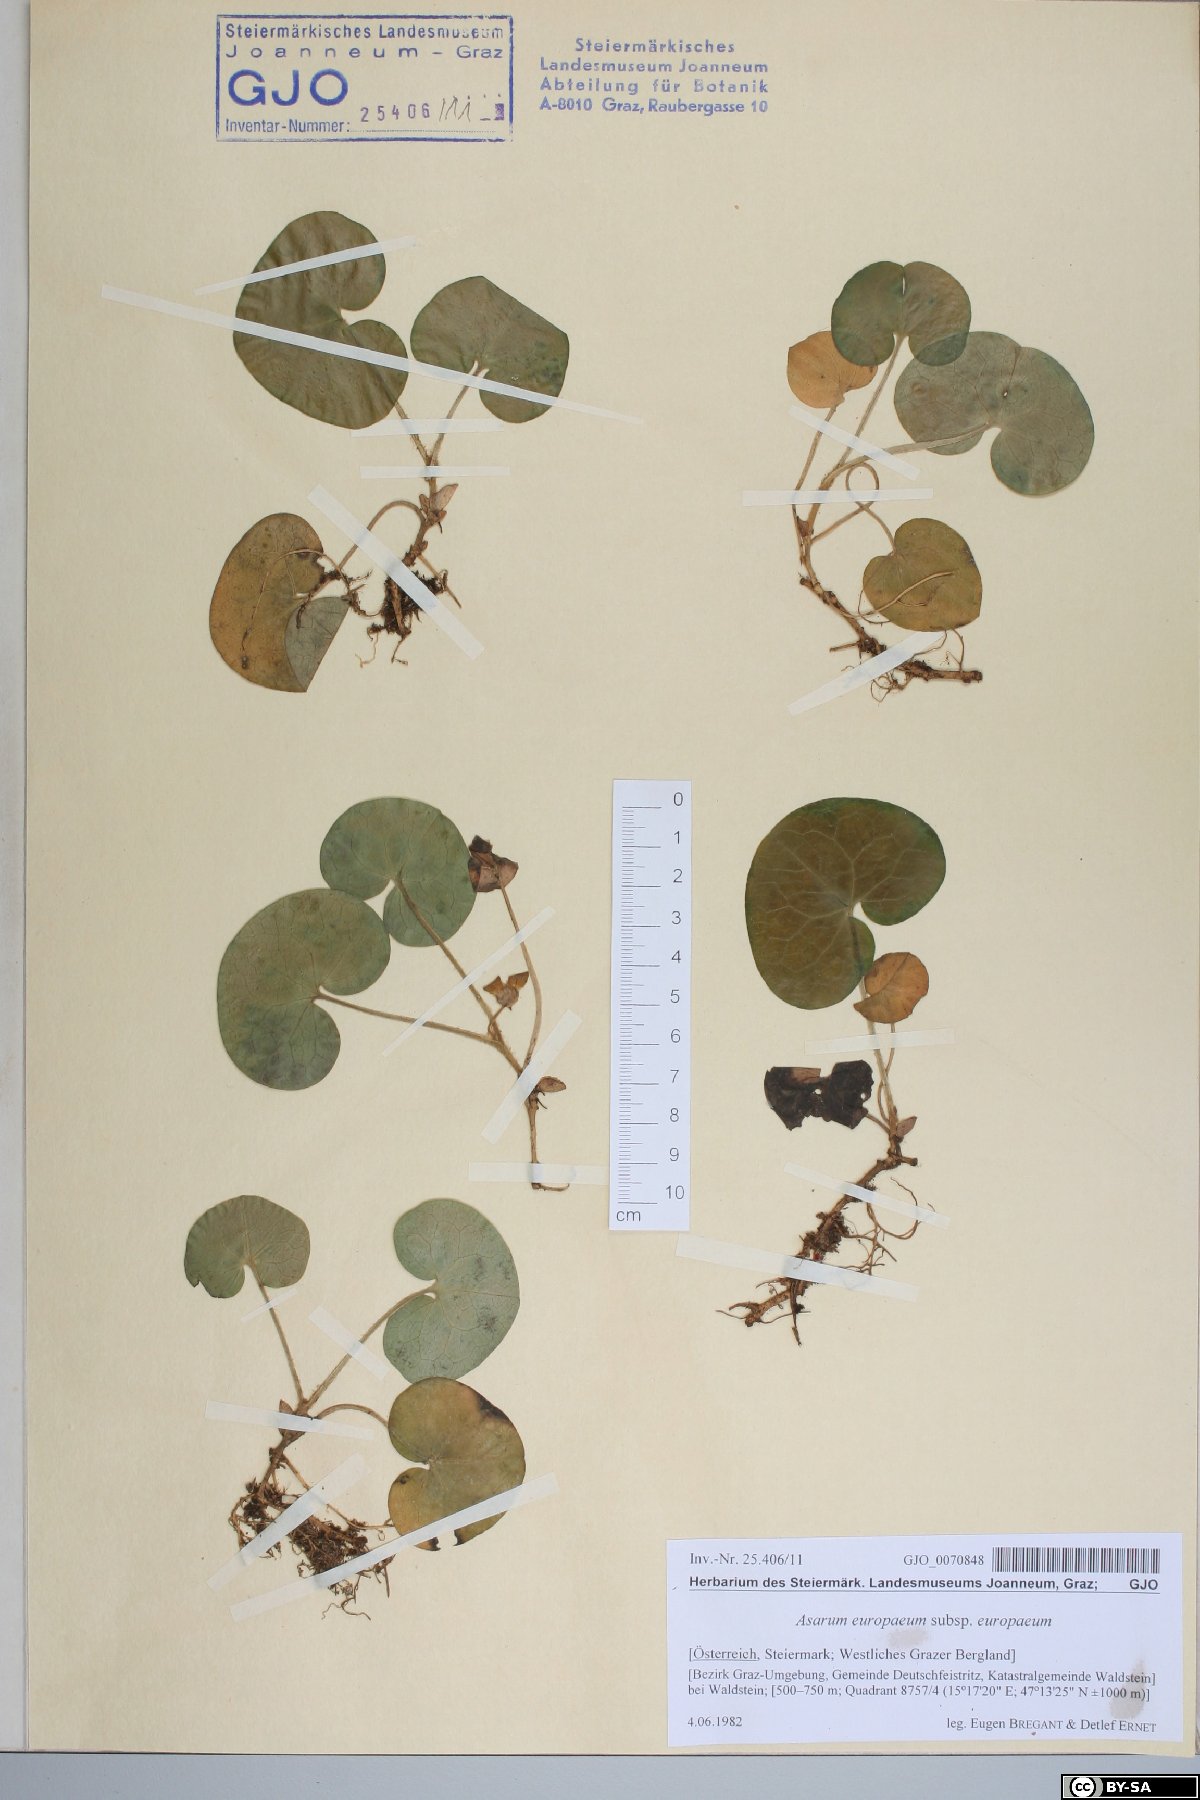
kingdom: Plantae
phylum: Tracheophyta
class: Magnoliopsida
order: Piperales
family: Aristolochiaceae
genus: Asarum
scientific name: Asarum europaeum
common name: Asarabacca
